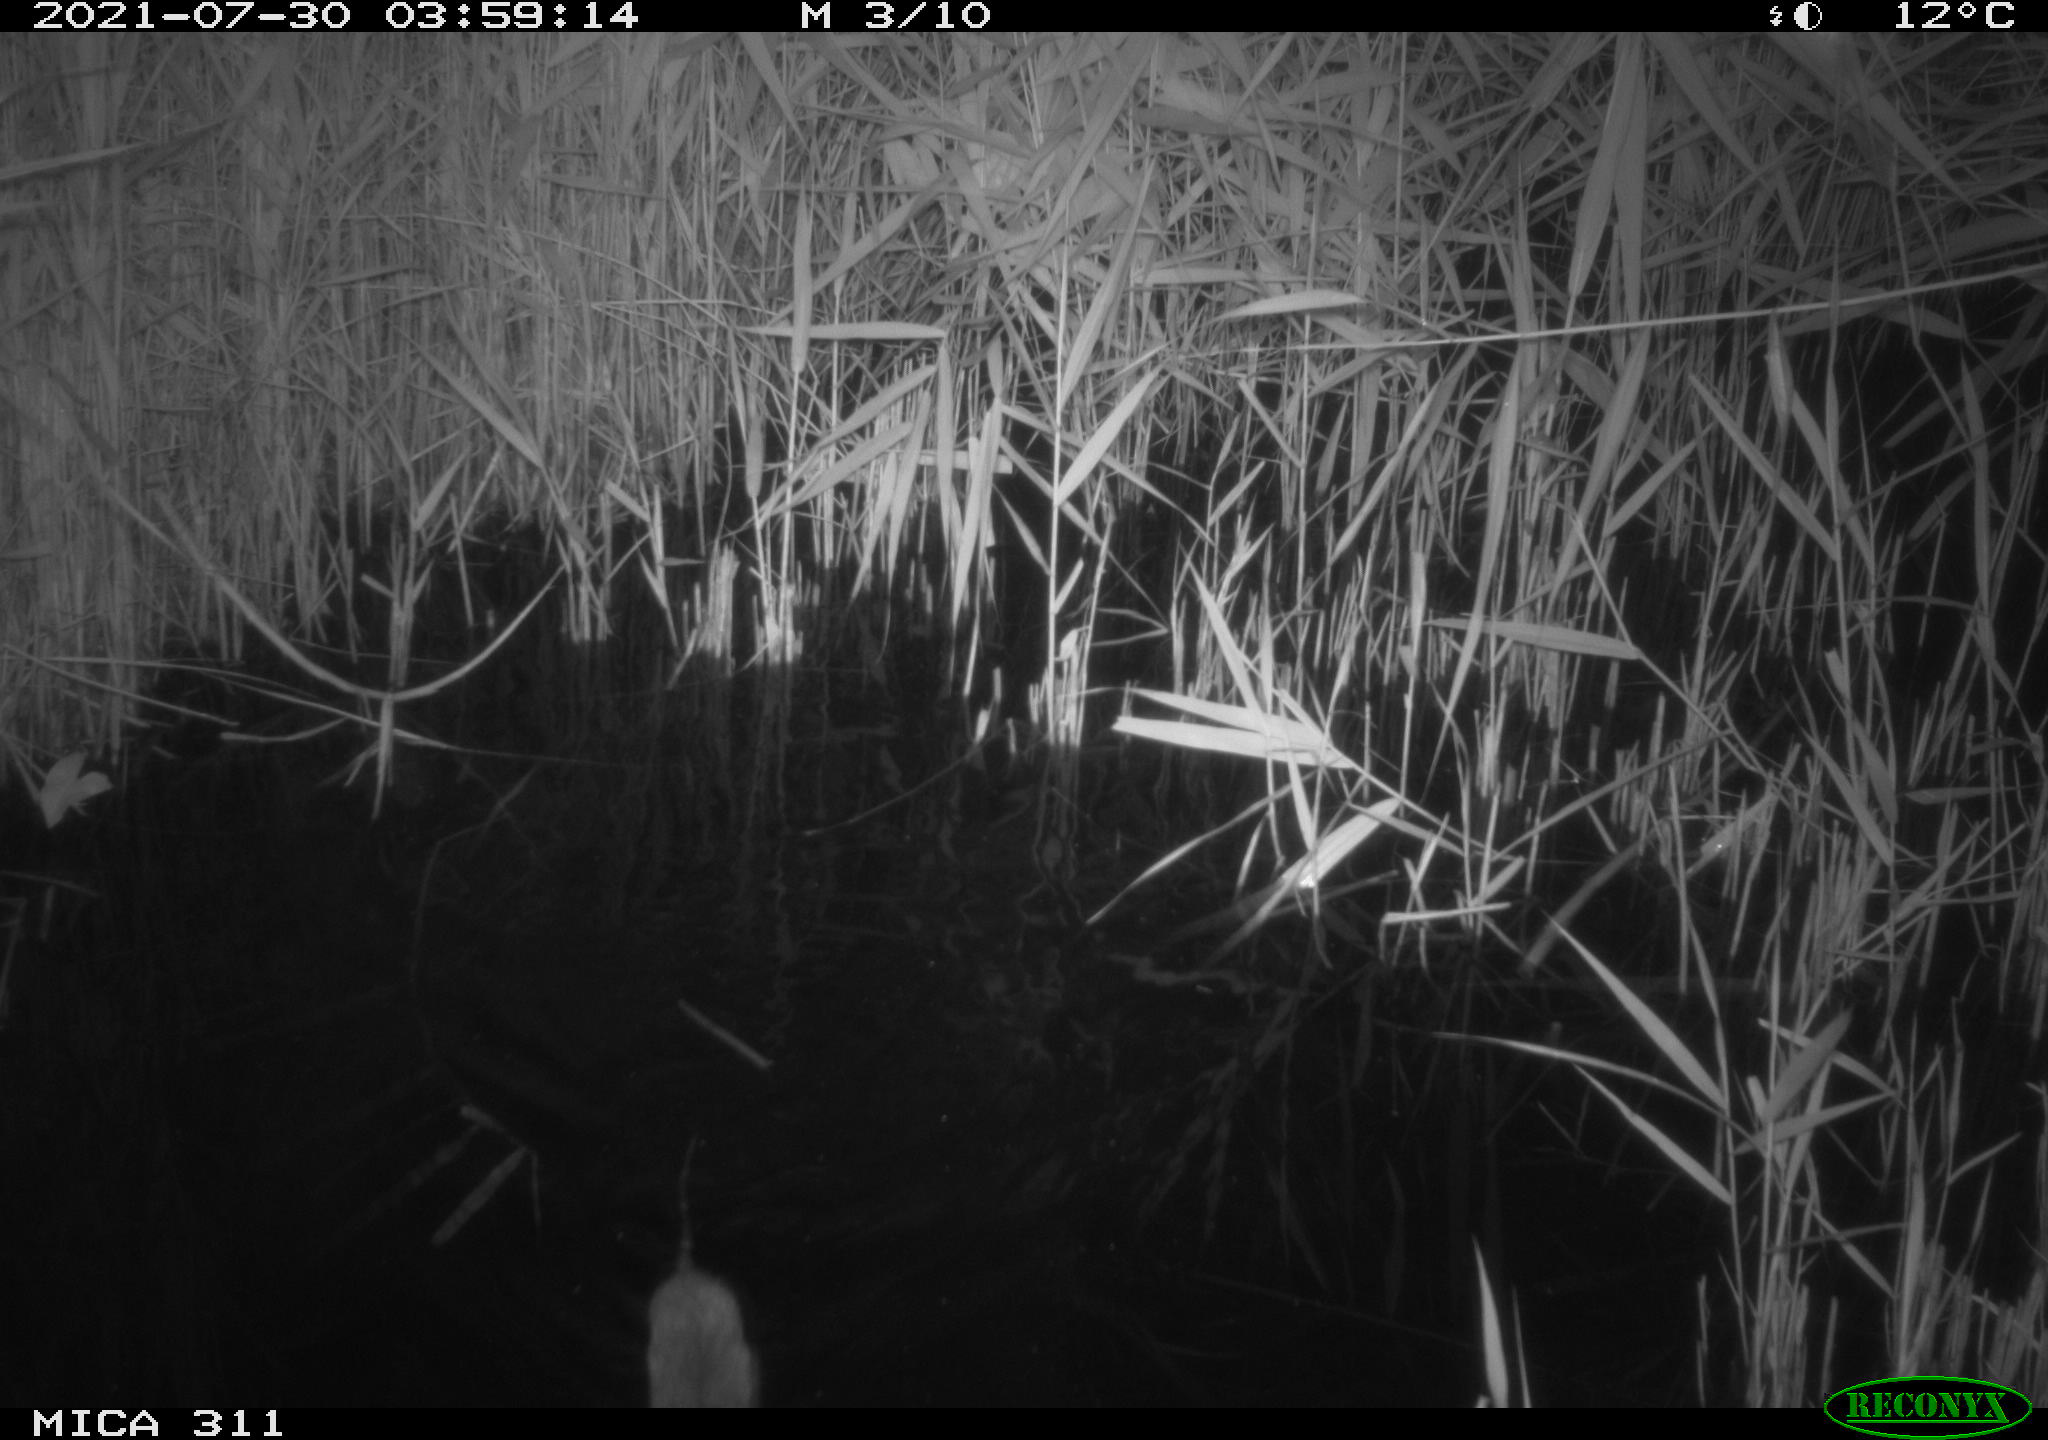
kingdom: Animalia
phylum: Chordata
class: Mammalia
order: Rodentia
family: Muridae
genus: Rattus
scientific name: Rattus norvegicus
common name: Brown rat
